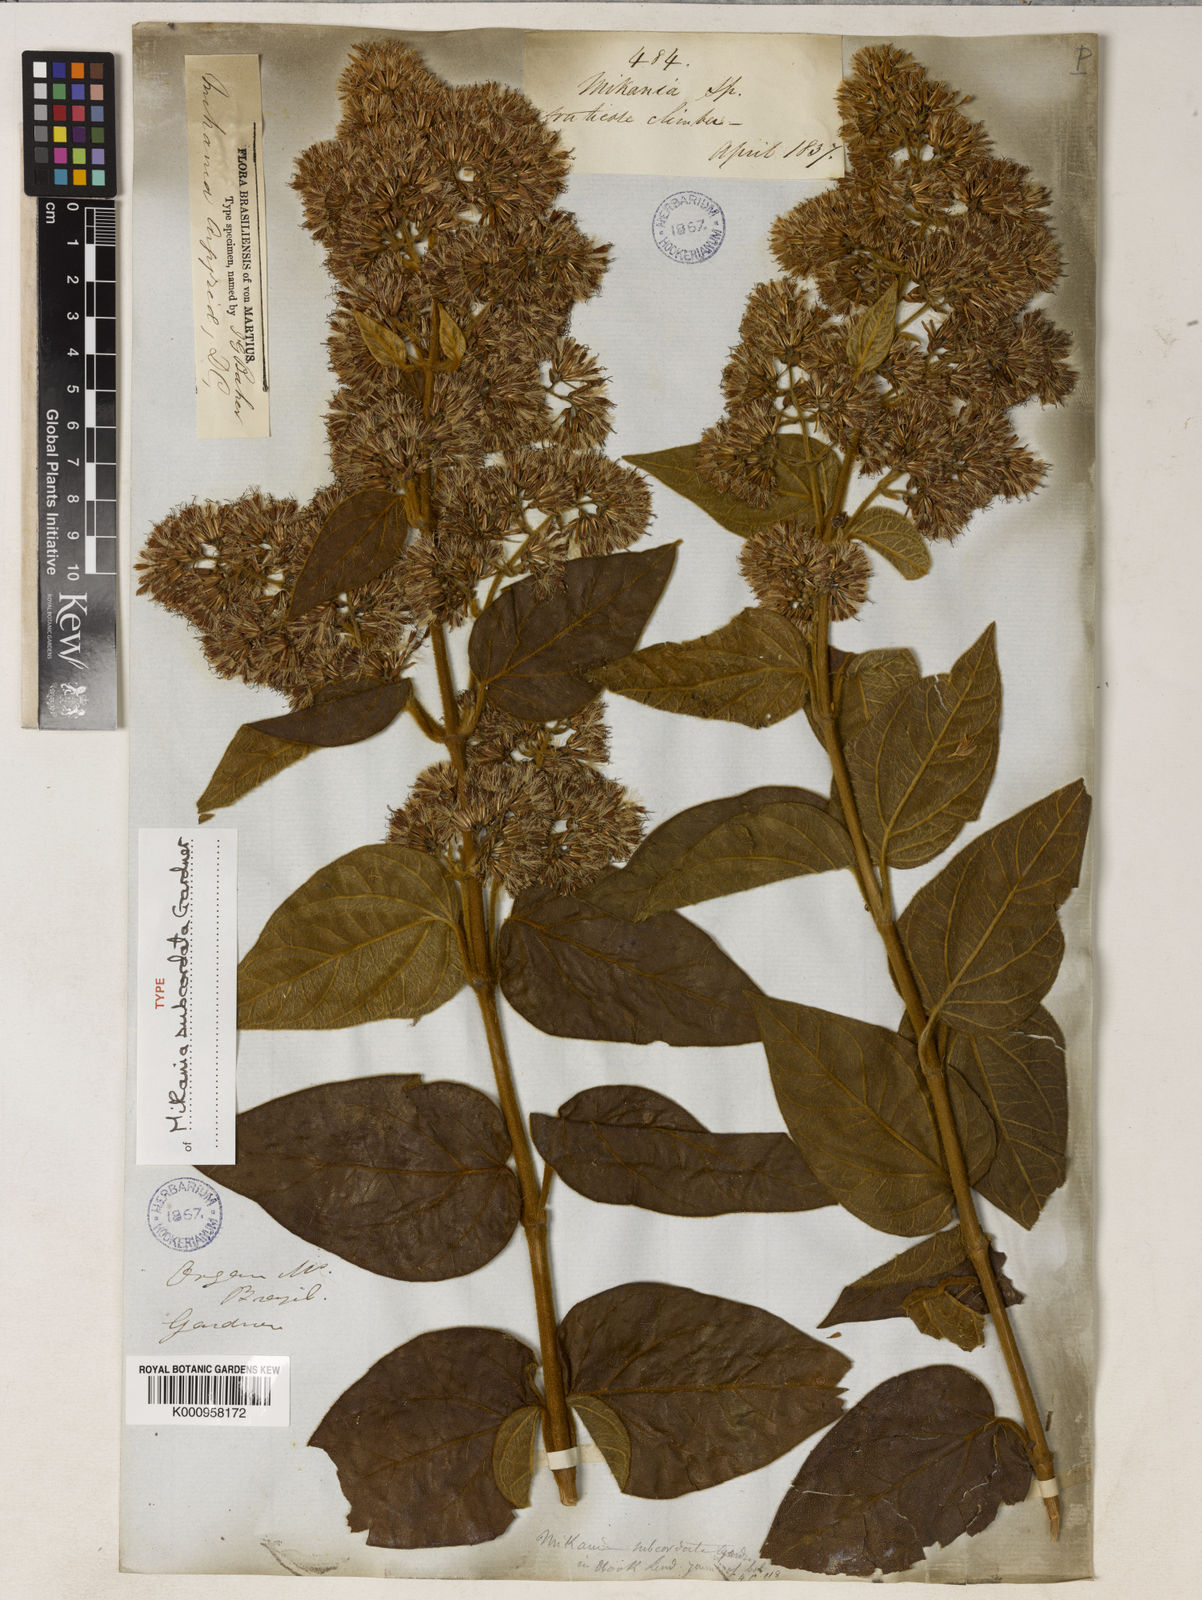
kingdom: Plantae
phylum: Tracheophyta
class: Magnoliopsida
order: Asterales
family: Asteraceae
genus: Mikania
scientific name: Mikania argyreiae
